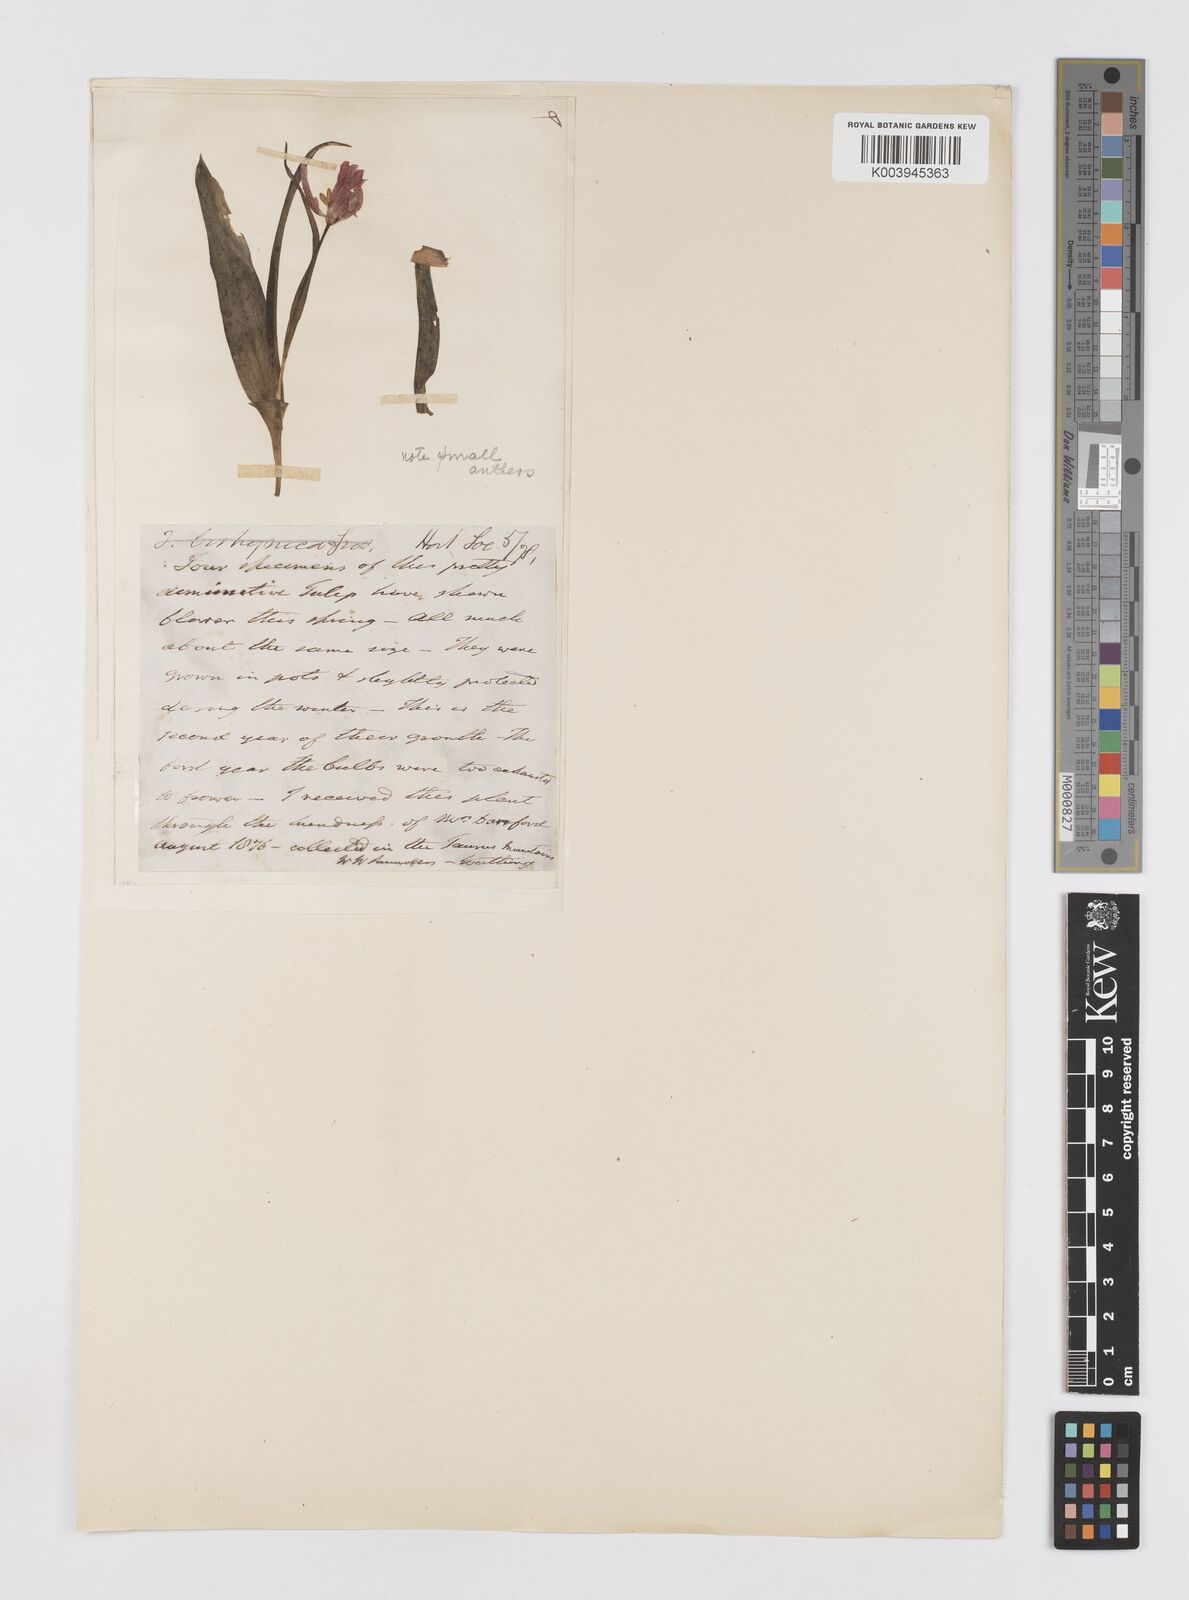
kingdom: Plantae
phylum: Tracheophyta
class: Liliopsida
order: Liliales
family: Liliaceae
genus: Tulipa
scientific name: Tulipa
